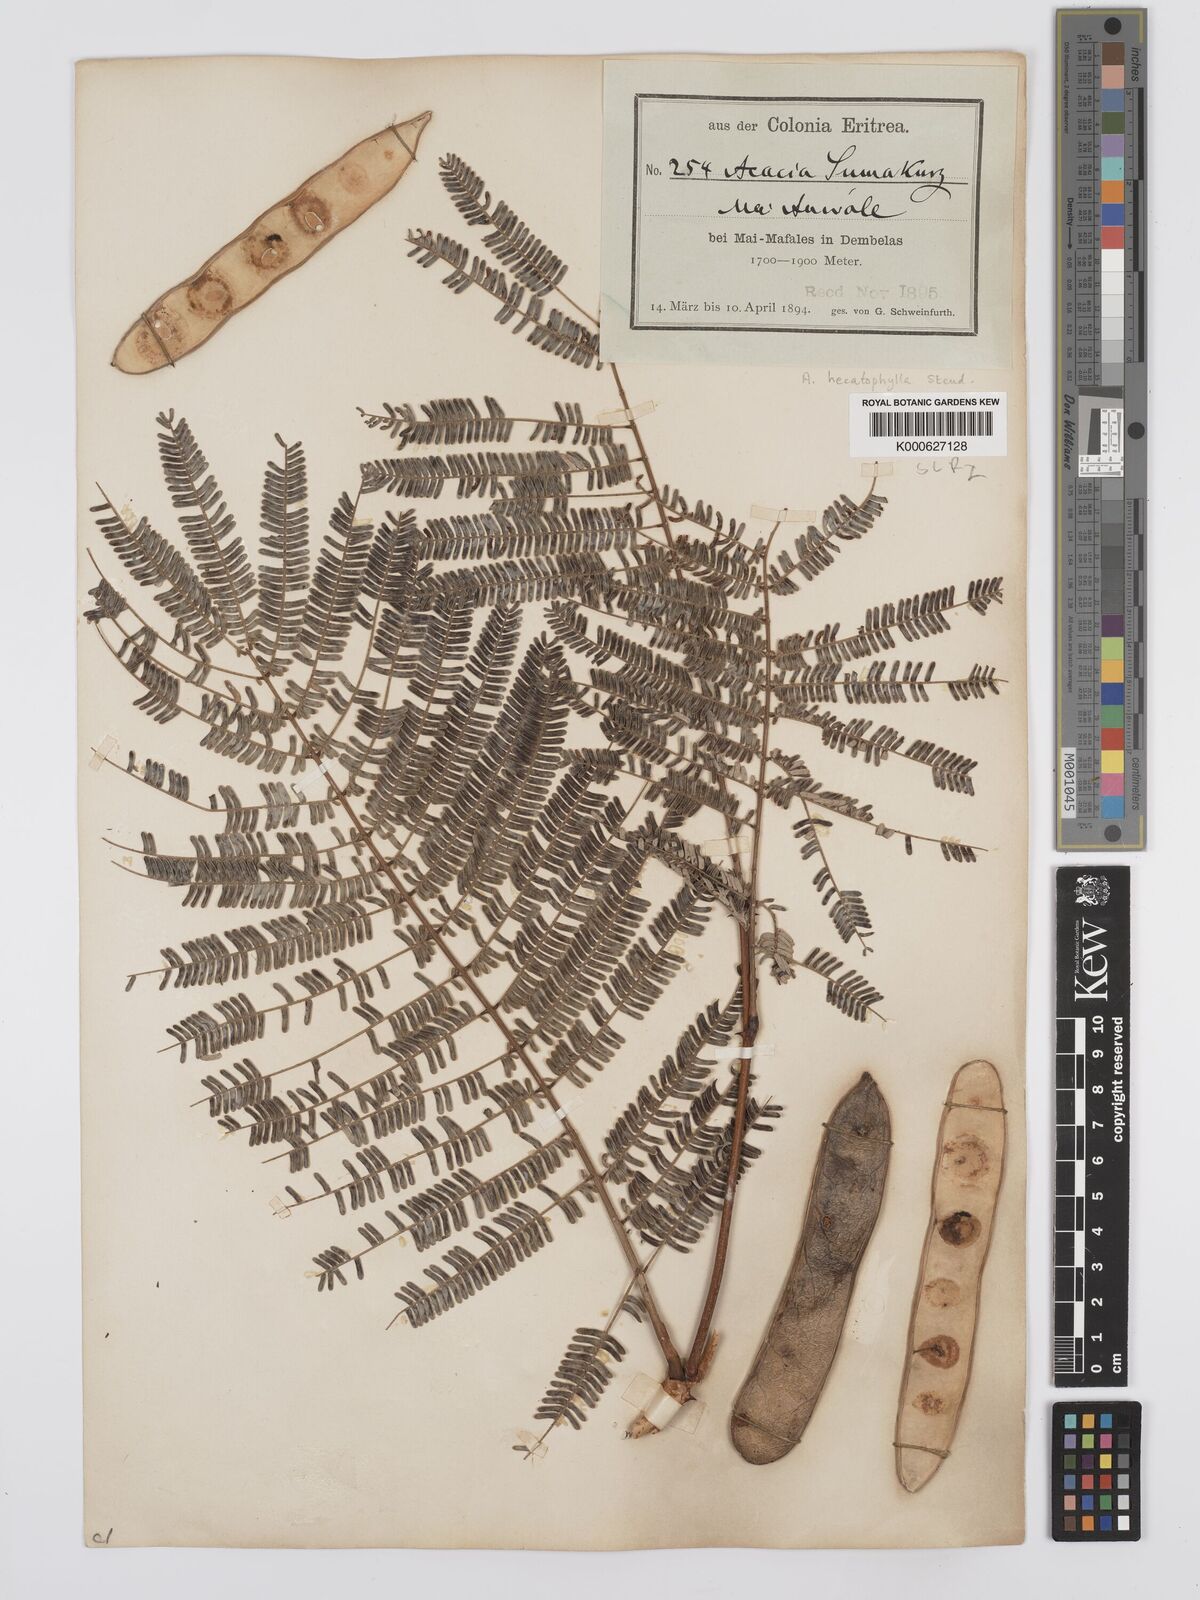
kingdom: Plantae
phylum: Tracheophyta
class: Magnoliopsida
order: Fabales
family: Fabaceae
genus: Senegalia
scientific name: Senegalia hecatophylla
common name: Long pod
